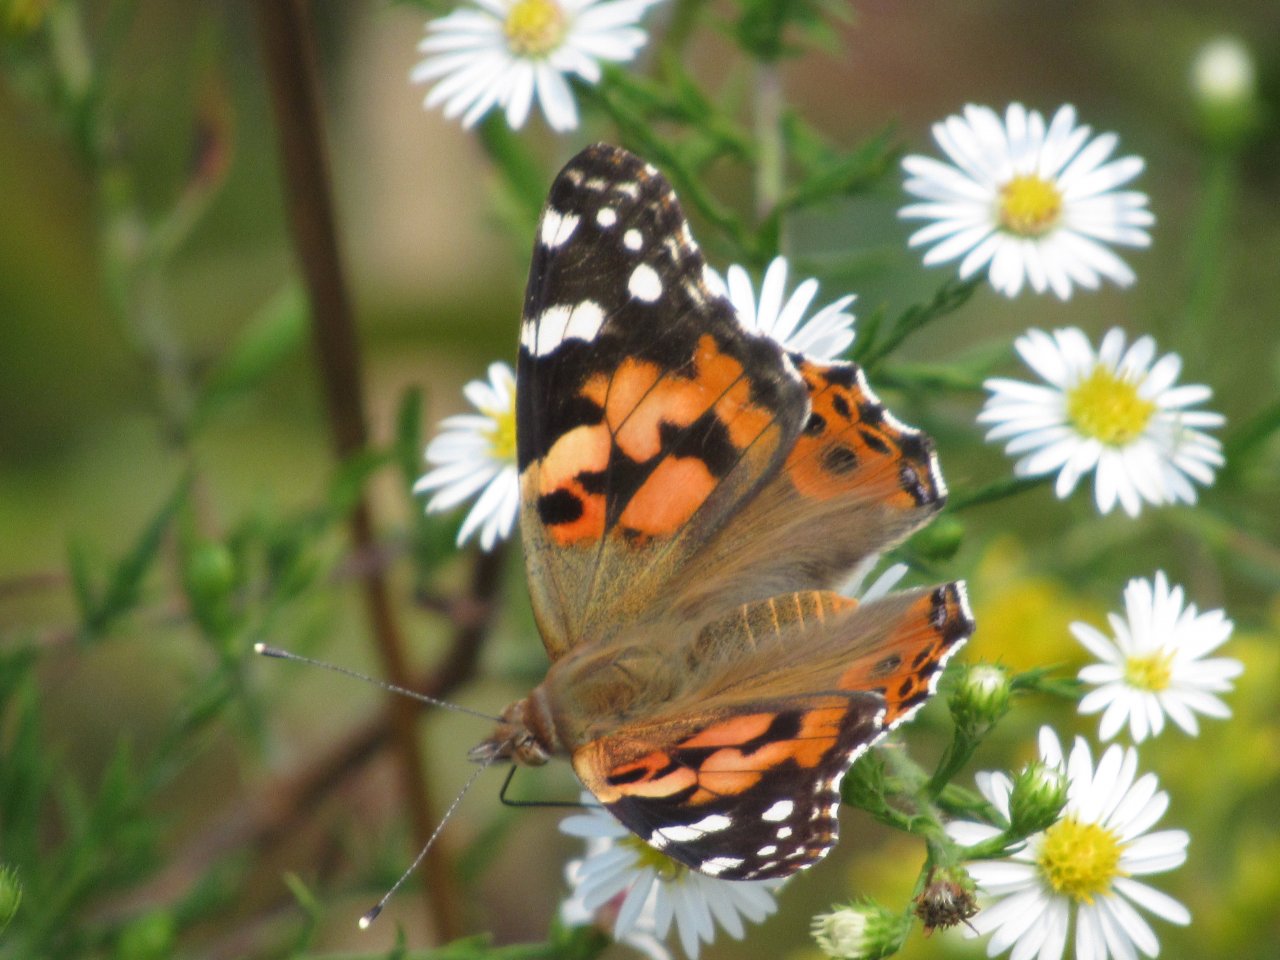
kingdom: Animalia
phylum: Arthropoda
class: Insecta
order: Lepidoptera
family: Nymphalidae
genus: Vanessa
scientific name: Vanessa cardui
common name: Painted Lady
